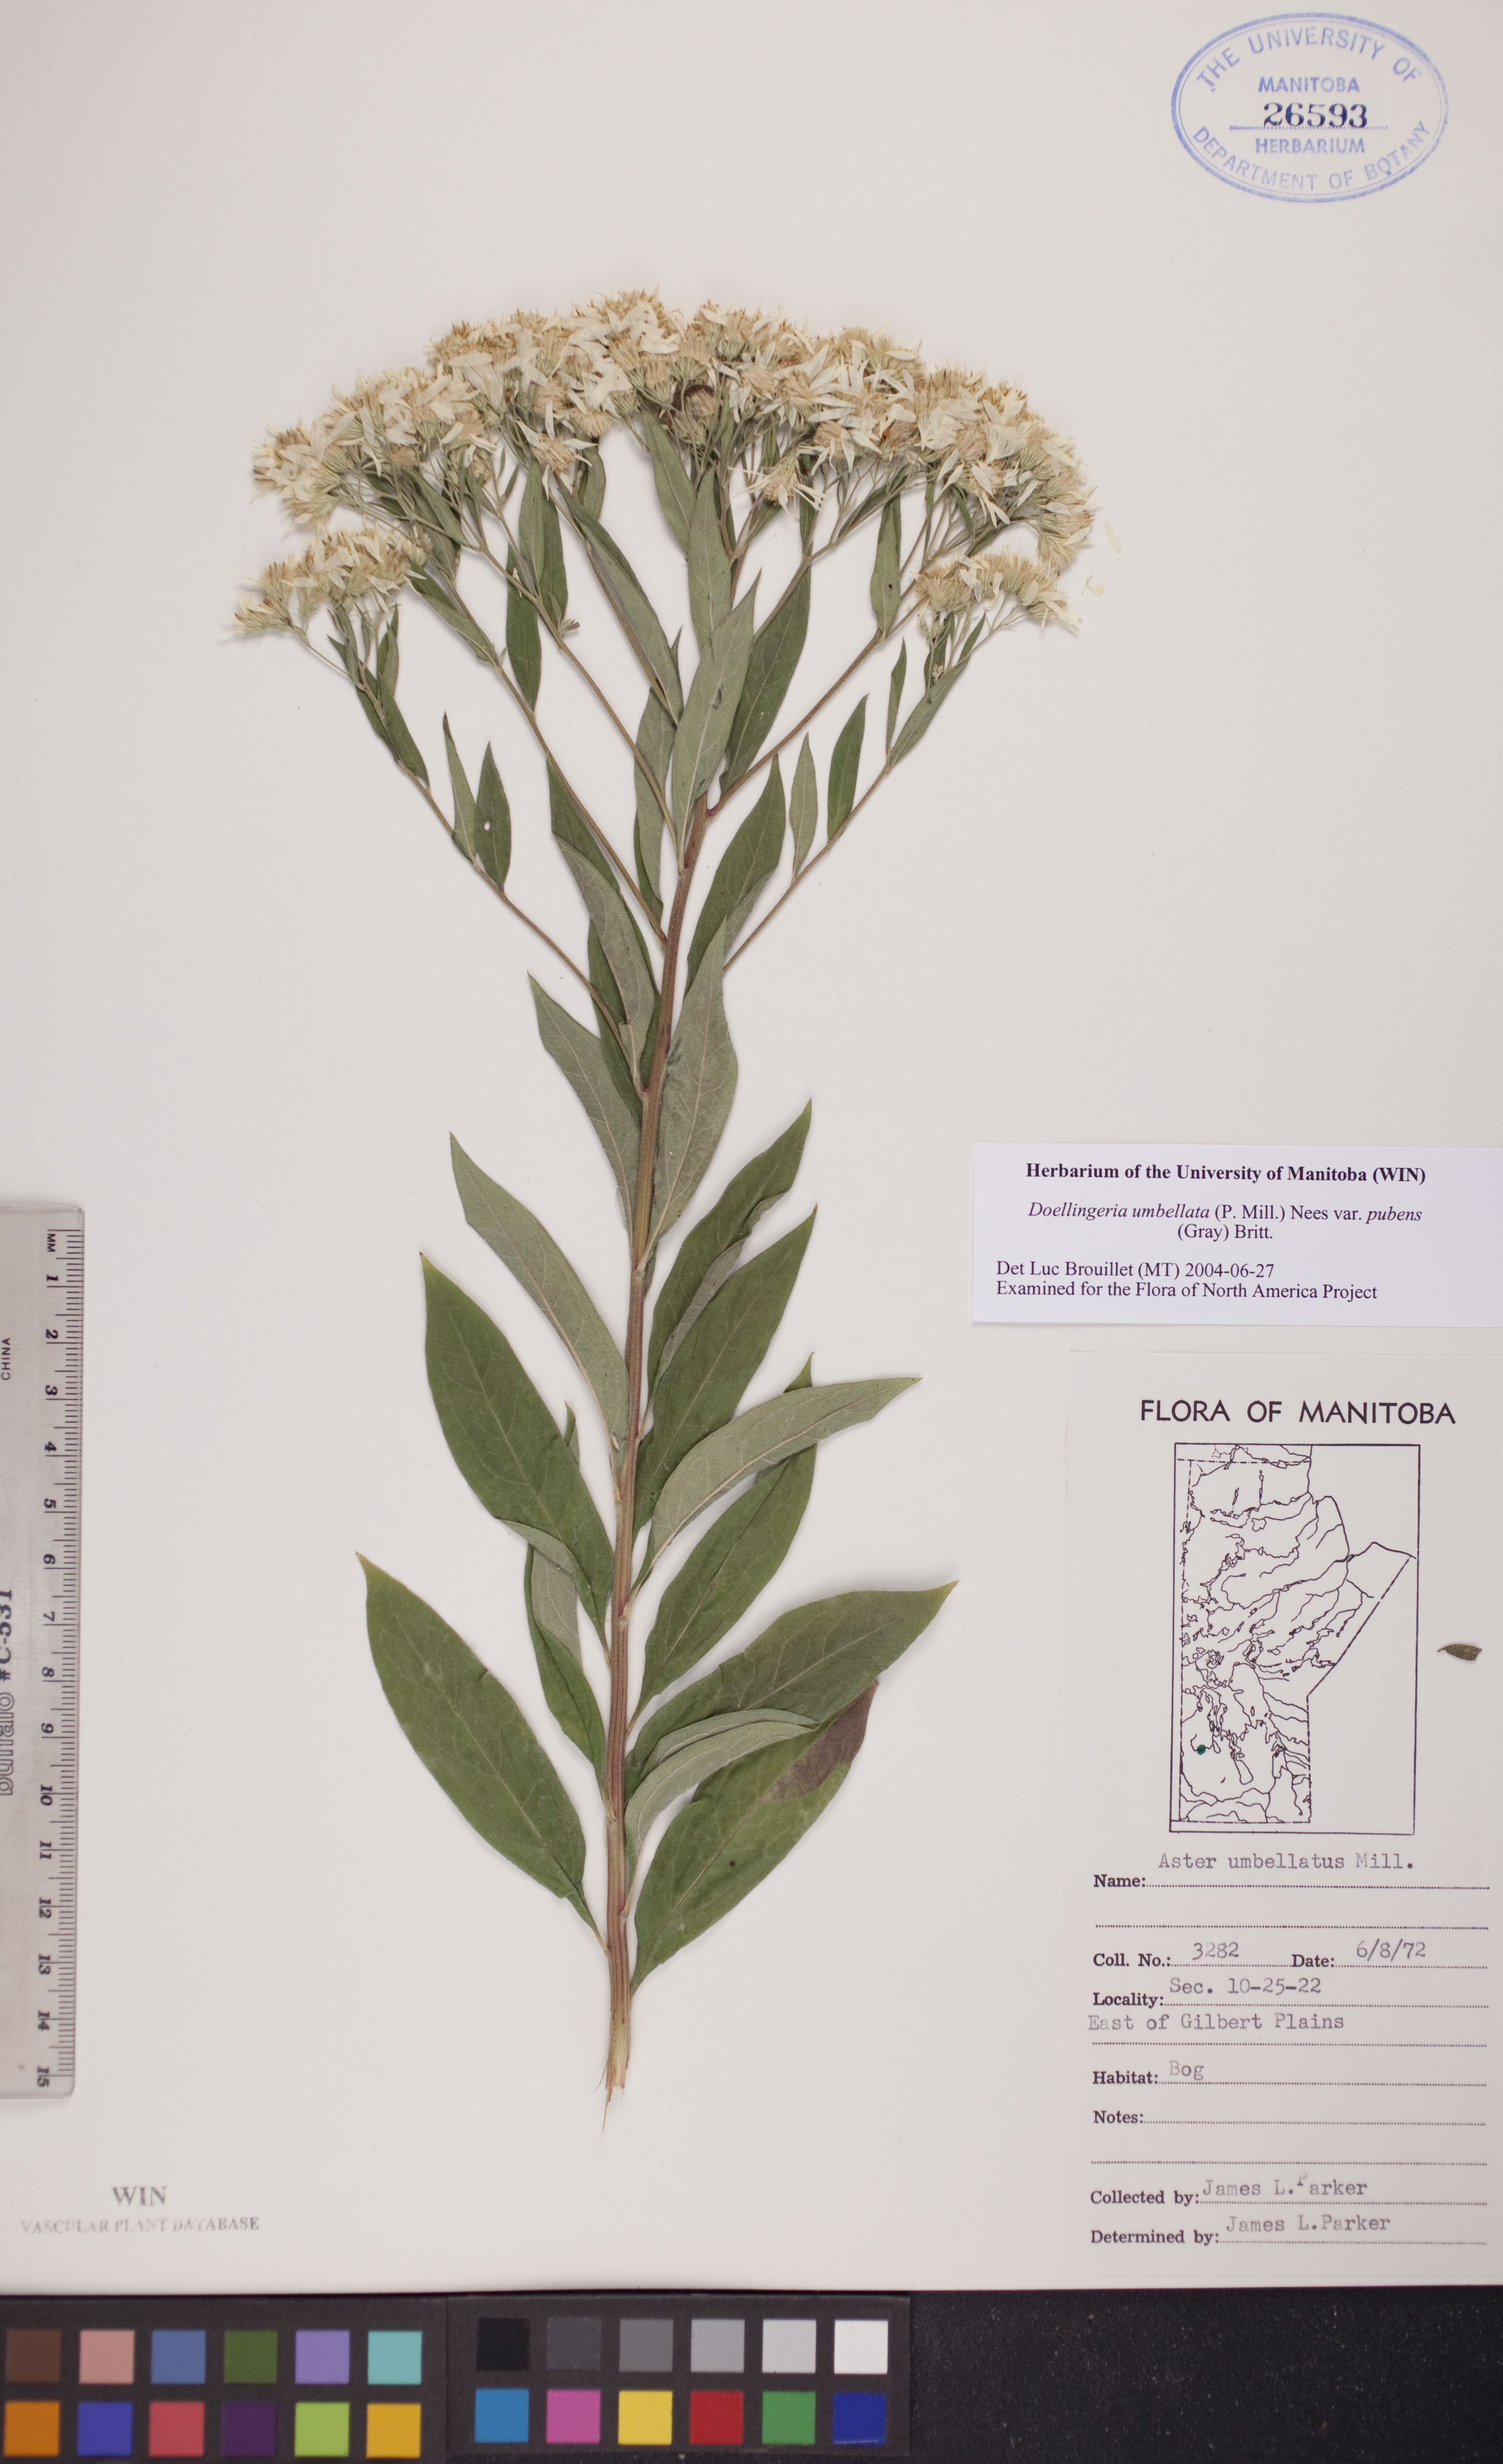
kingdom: Plantae
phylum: Tracheophyta
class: Magnoliopsida
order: Asterales
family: Asteraceae
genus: Doellingeria
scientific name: Doellingeria umbellata
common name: Flat-top white aster
